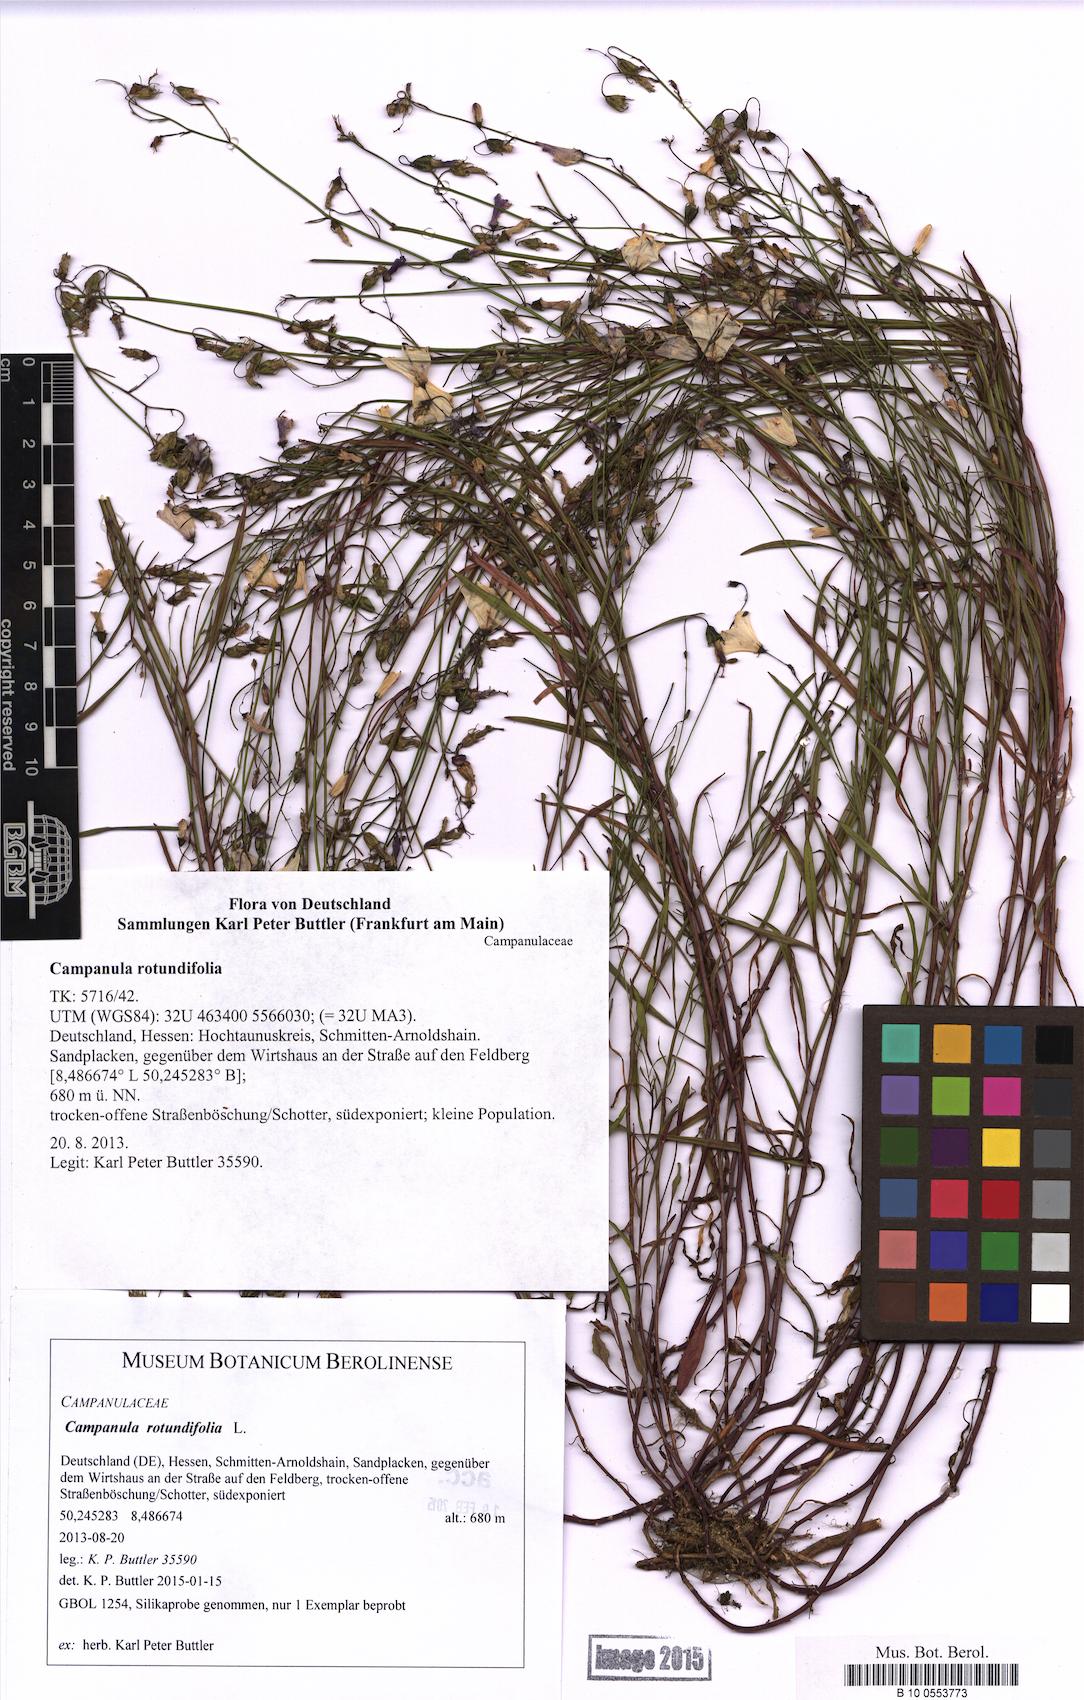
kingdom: Plantae
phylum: Tracheophyta
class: Magnoliopsida
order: Asterales
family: Campanulaceae
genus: Campanula
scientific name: Campanula rotundifolia
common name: Harebell
